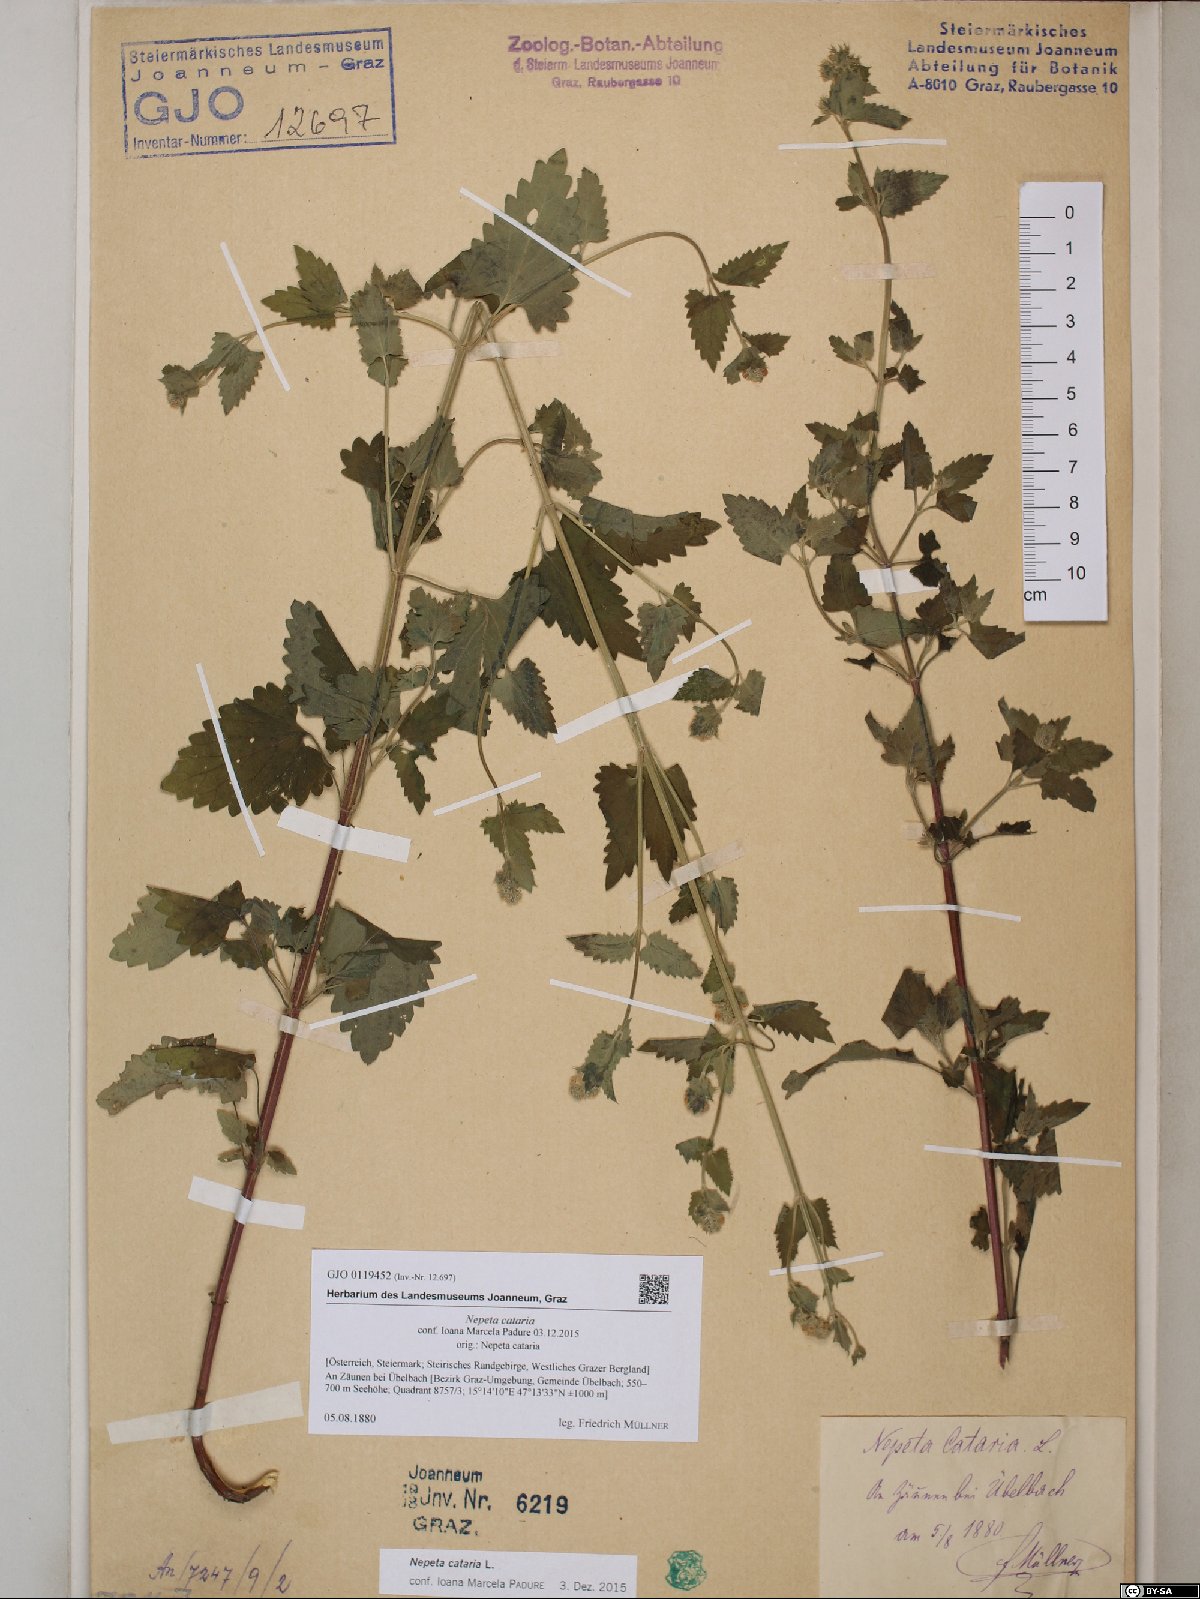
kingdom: Plantae
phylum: Tracheophyta
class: Magnoliopsida
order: Lamiales
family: Lamiaceae
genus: Nepeta
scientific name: Nepeta cataria
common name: Catnip
